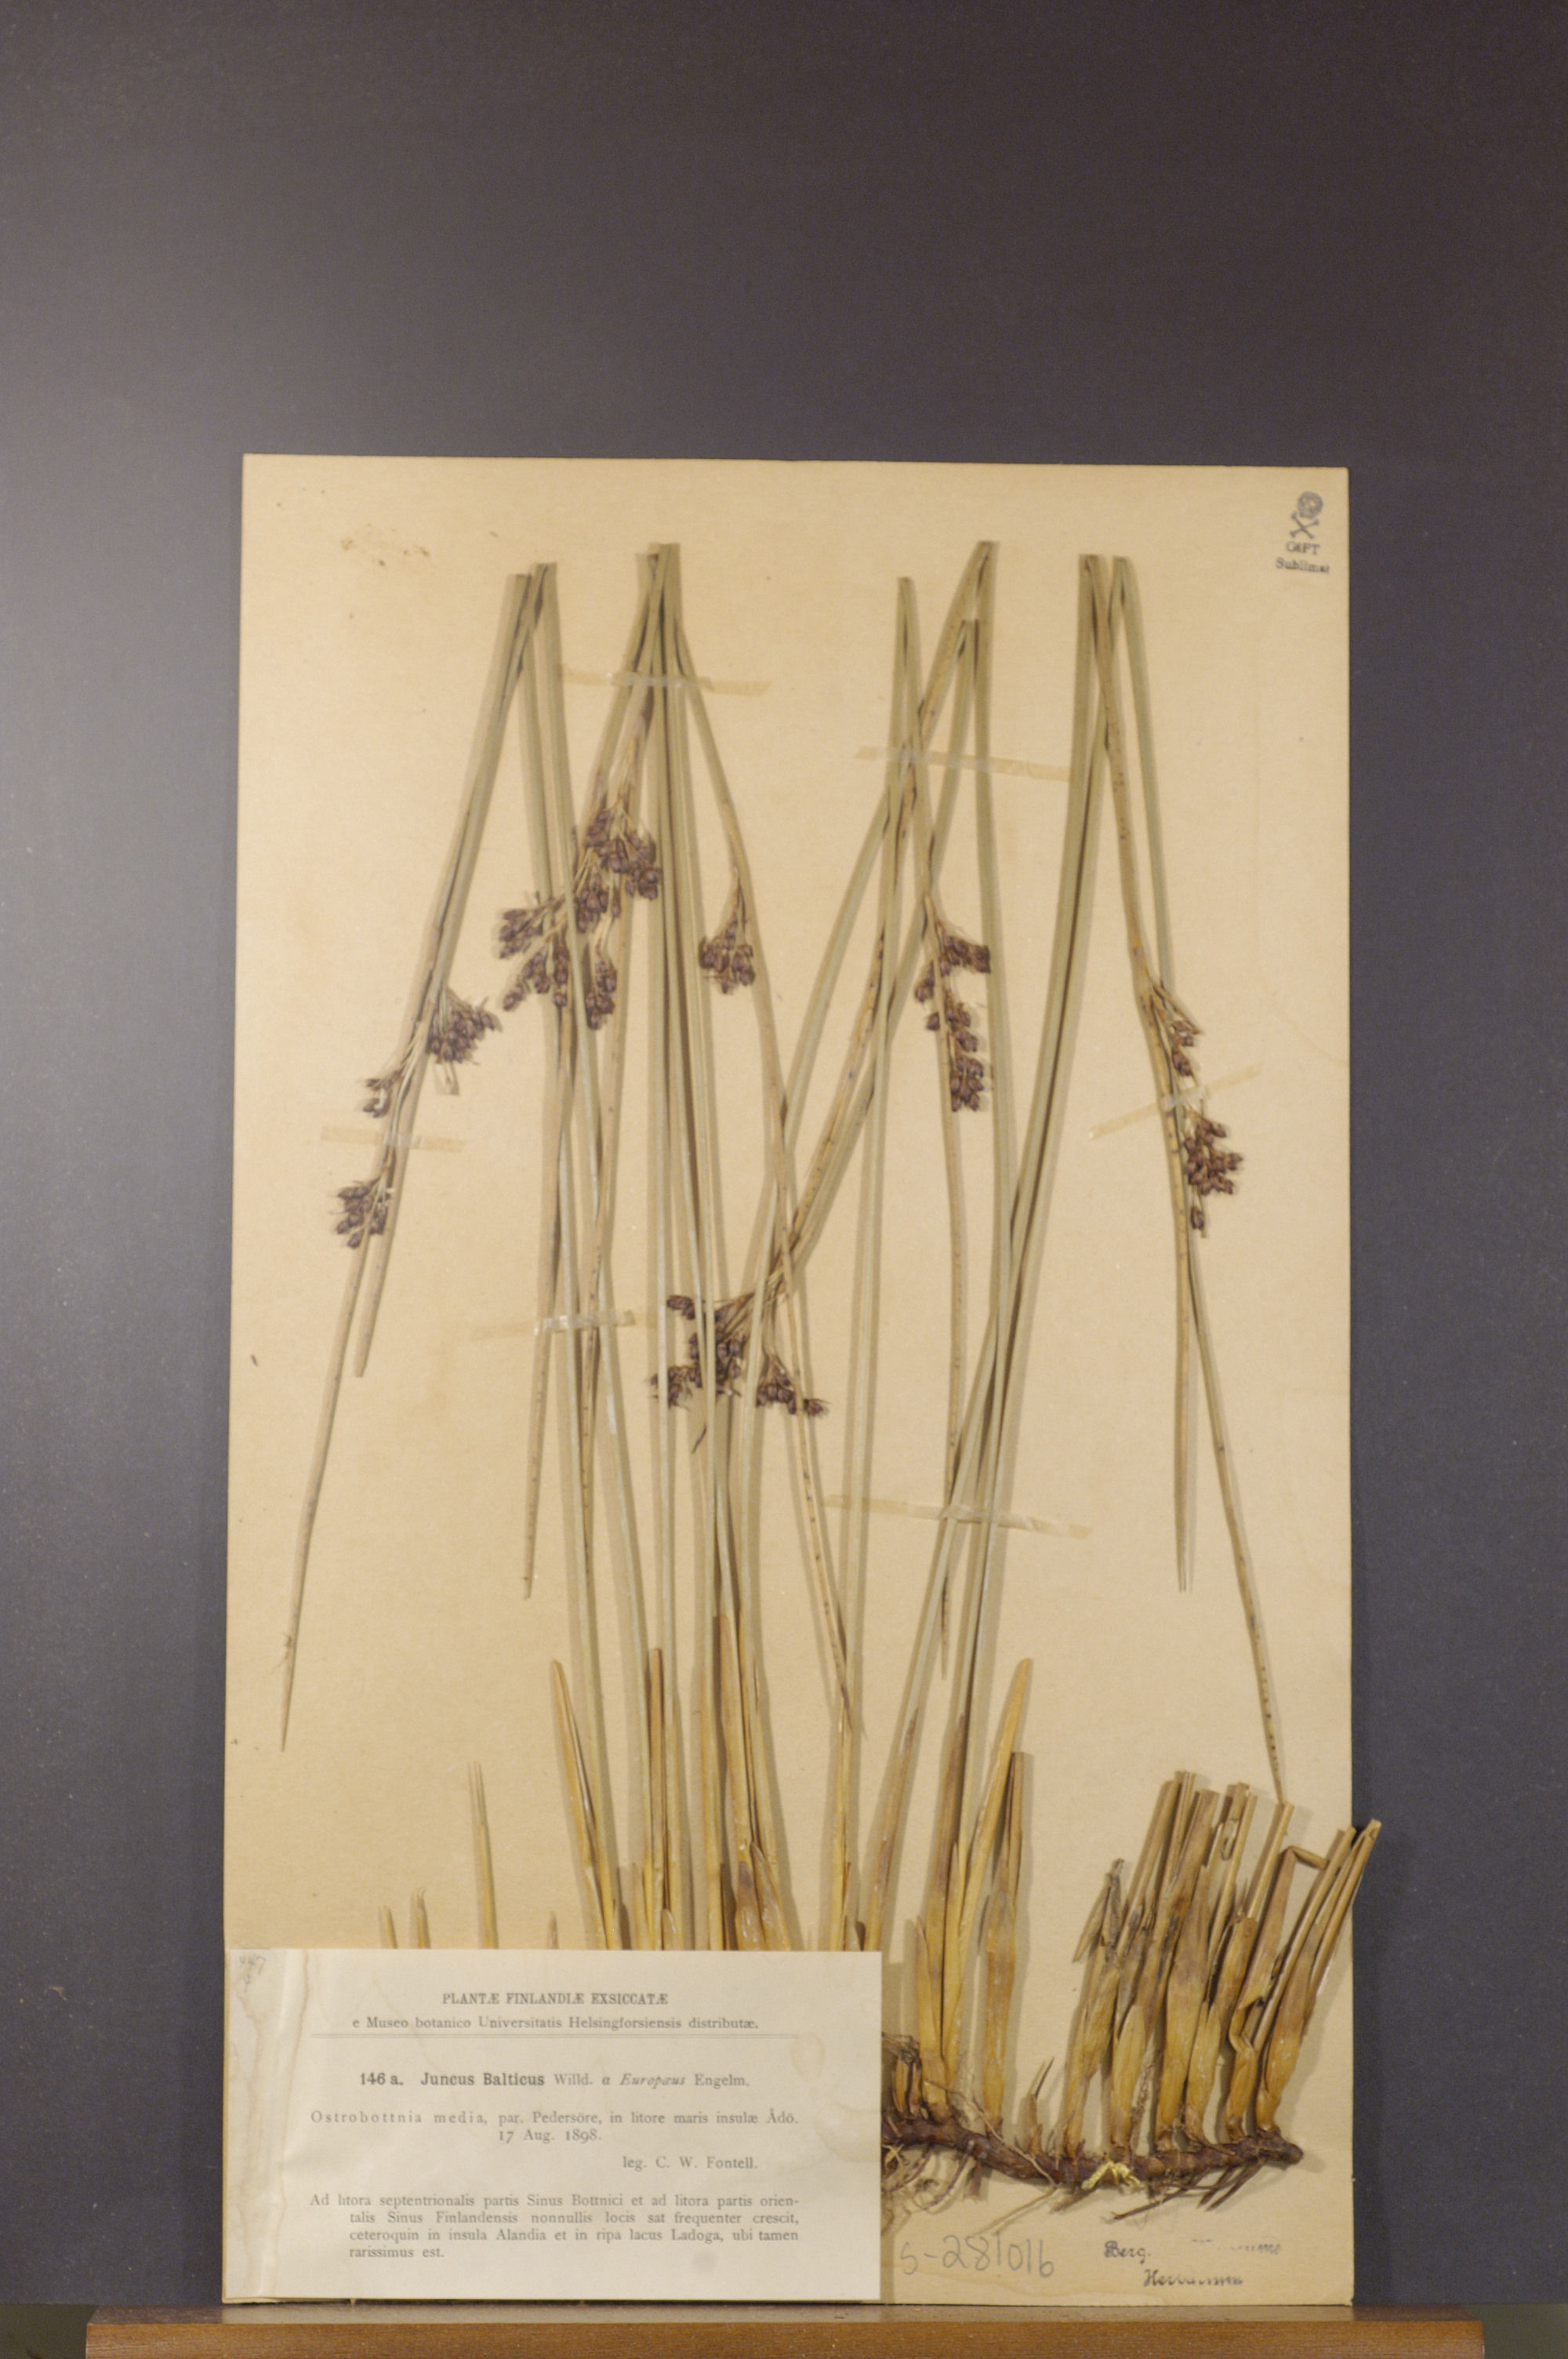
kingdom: Plantae
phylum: Tracheophyta
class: Liliopsida
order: Poales
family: Juncaceae
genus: Juncus
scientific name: Juncus balticus
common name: Baltic rush
